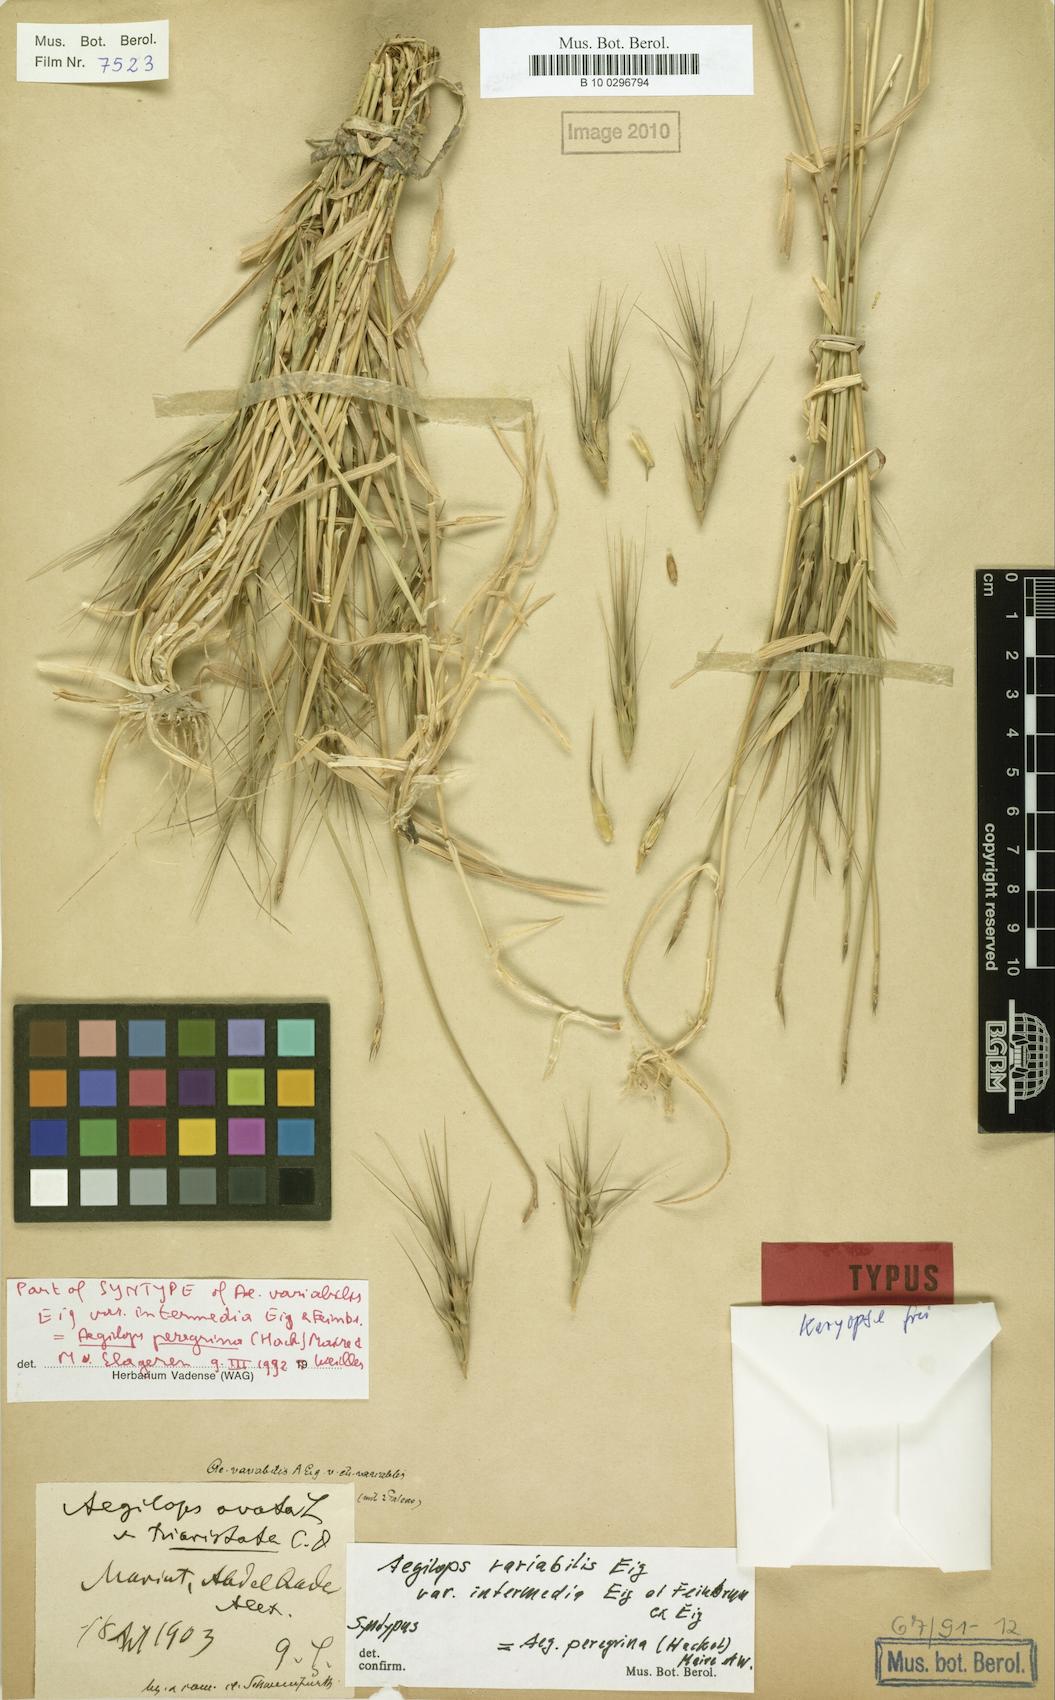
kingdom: Plantae
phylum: Tracheophyta
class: Liliopsida
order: Poales
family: Poaceae
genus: Aegilops
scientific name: Aegilops peregrina
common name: Goatgrass
